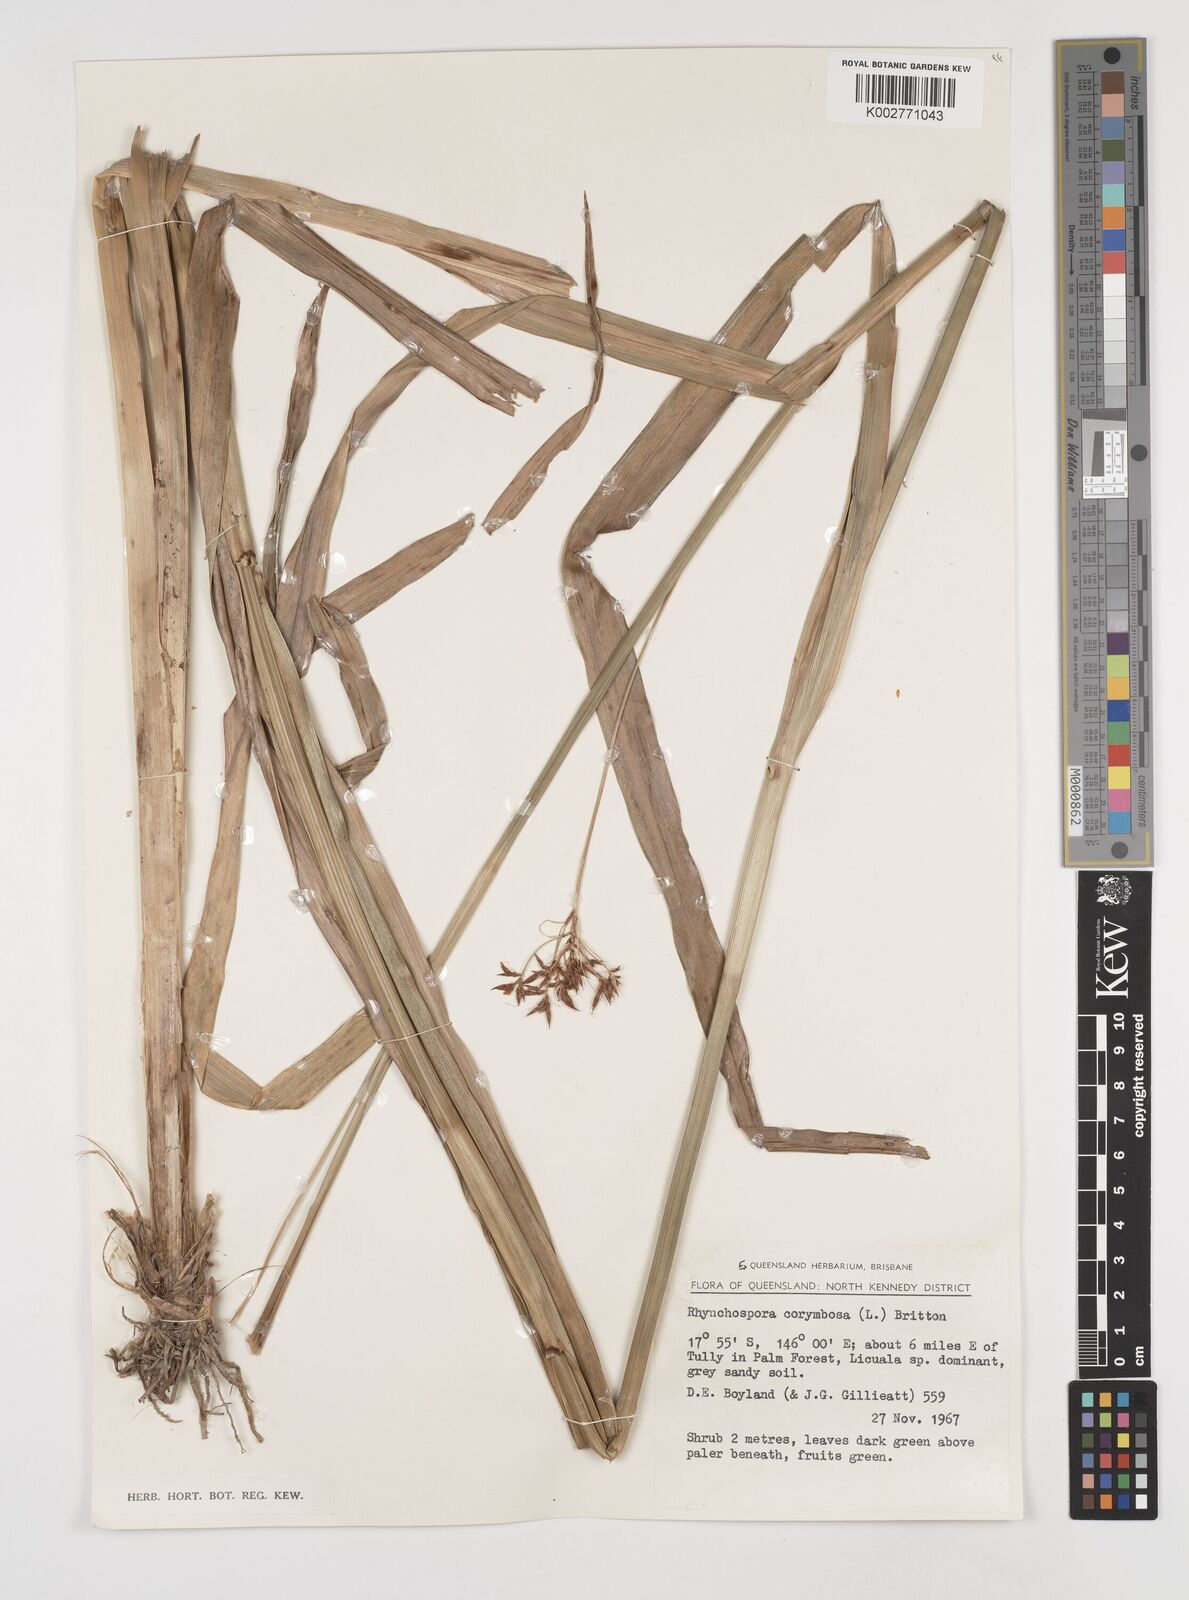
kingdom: Plantae
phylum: Tracheophyta
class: Liliopsida
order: Poales
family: Cyperaceae
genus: Rhynchospora
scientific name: Rhynchospora corymbosa
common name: Golden beak sedge
